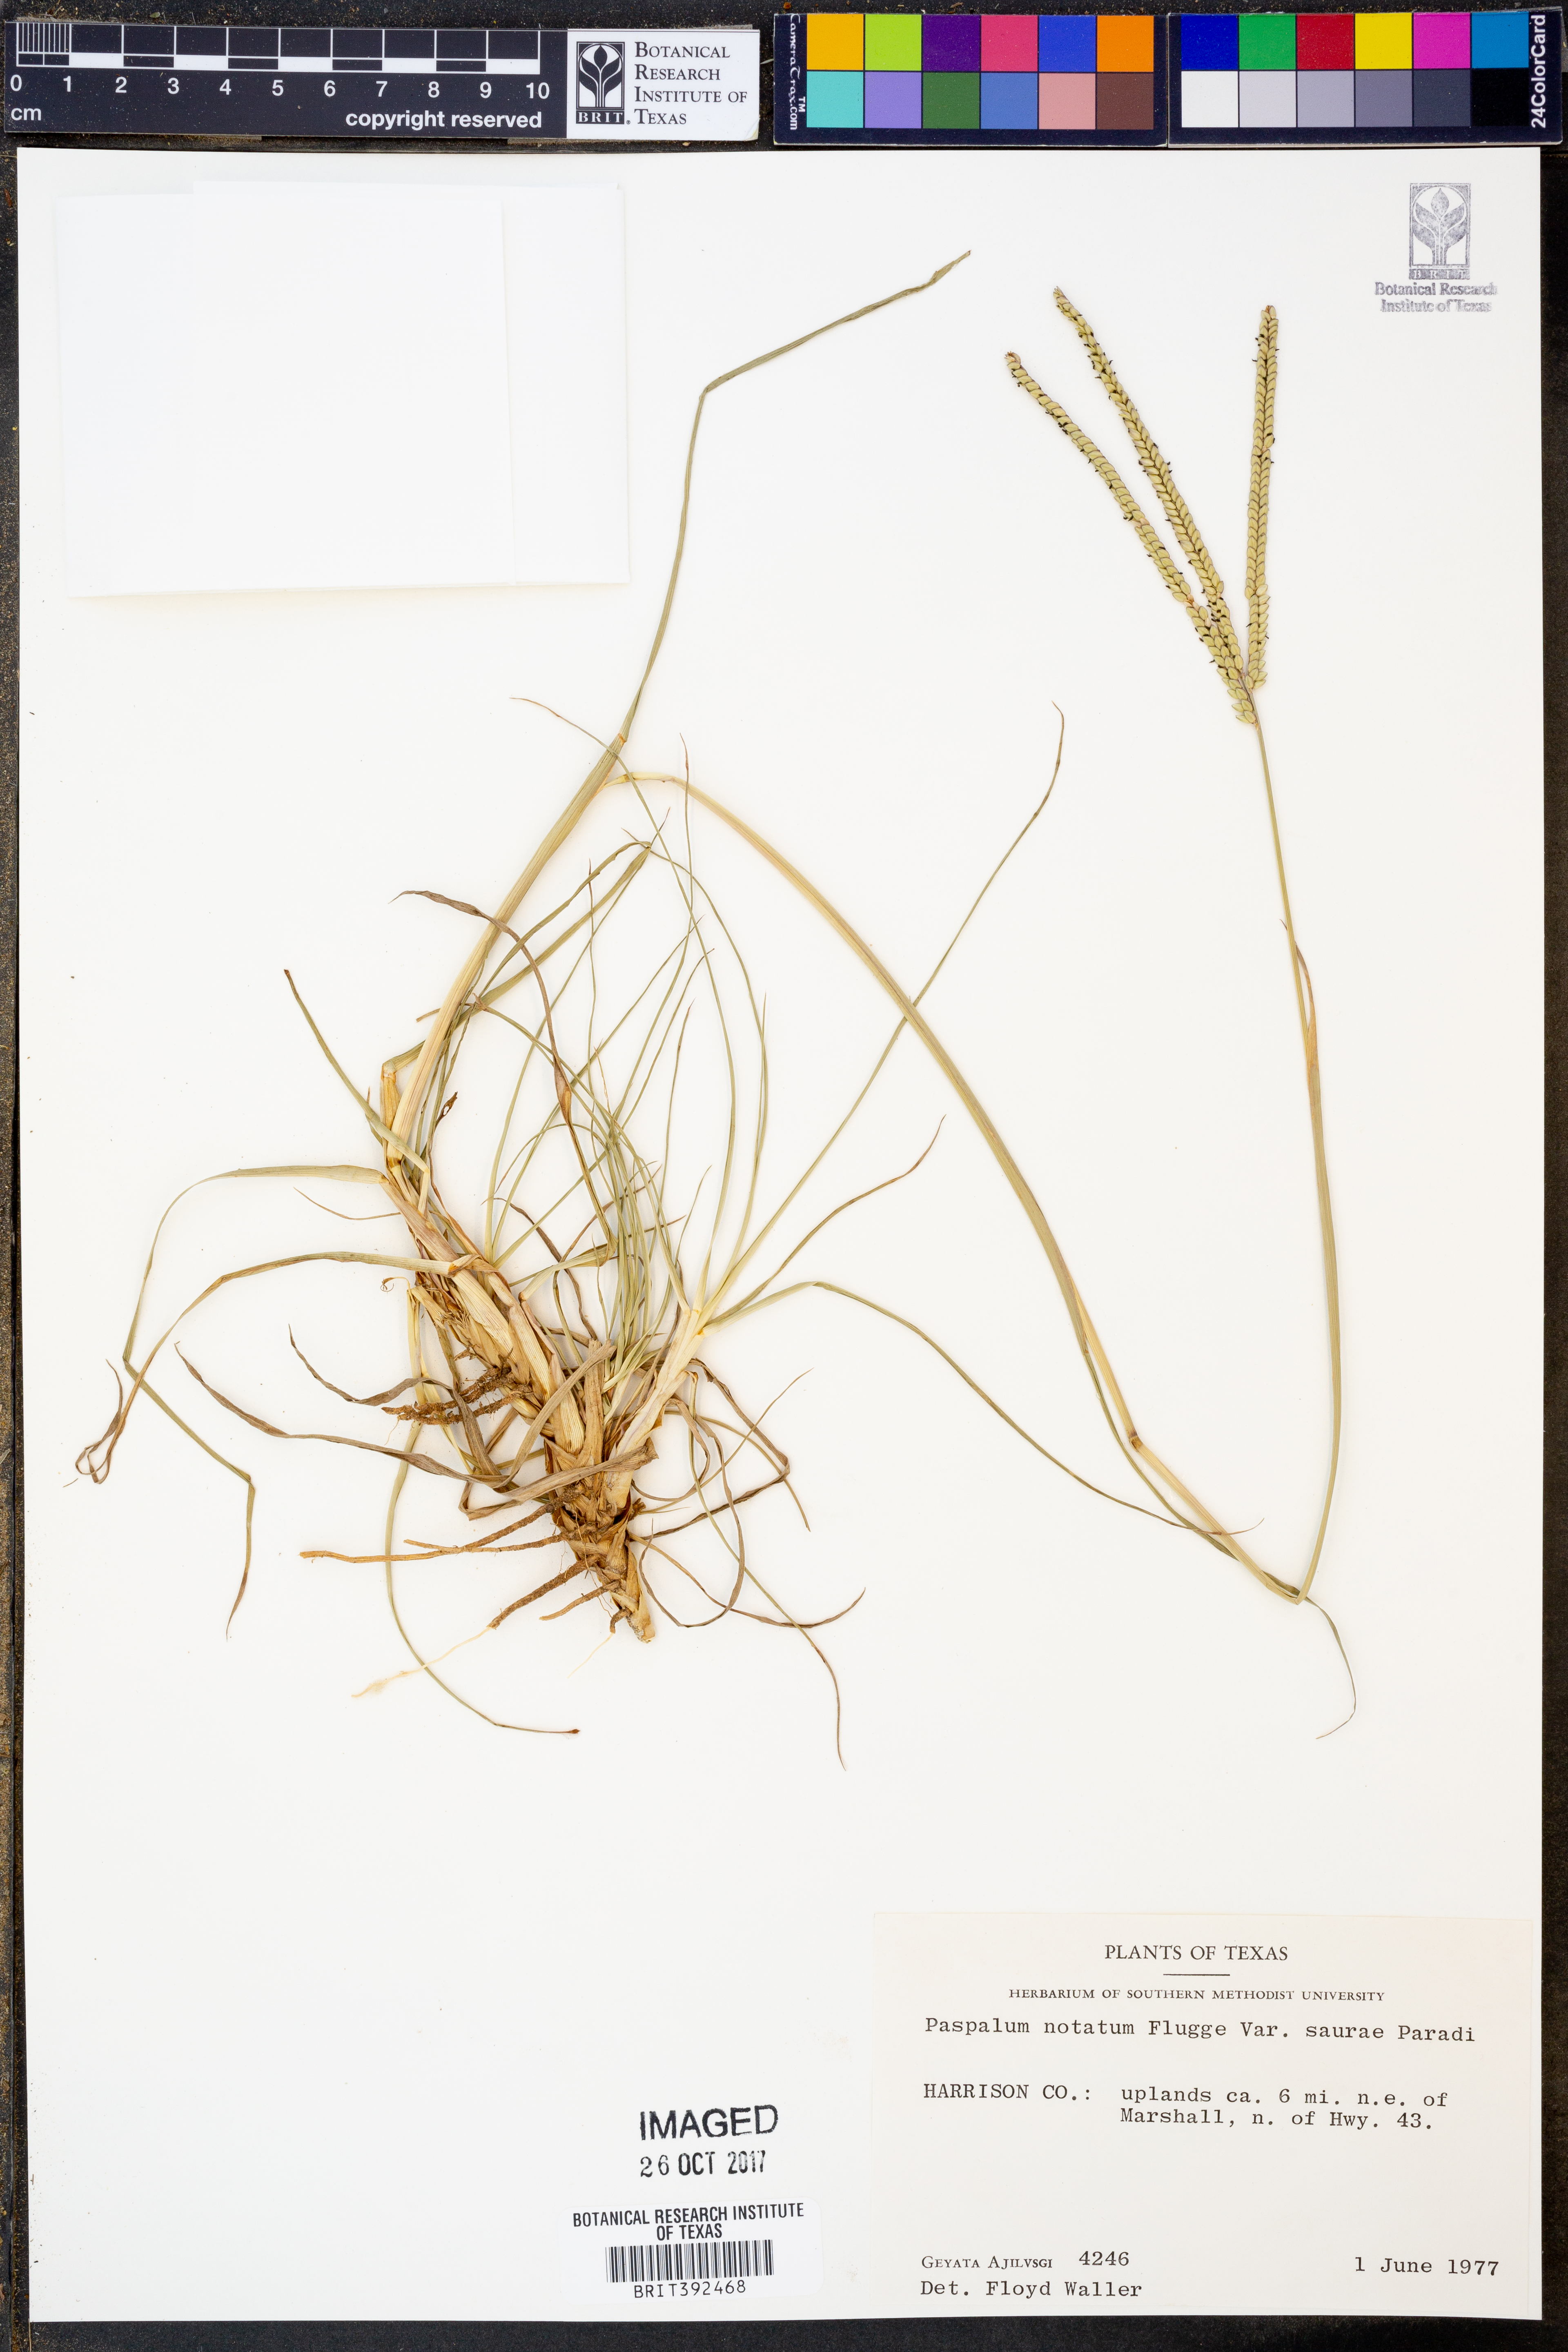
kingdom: Plantae
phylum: Tracheophyta
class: Liliopsida
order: Poales
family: Poaceae
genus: Paspalum
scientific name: Paspalum saurae
